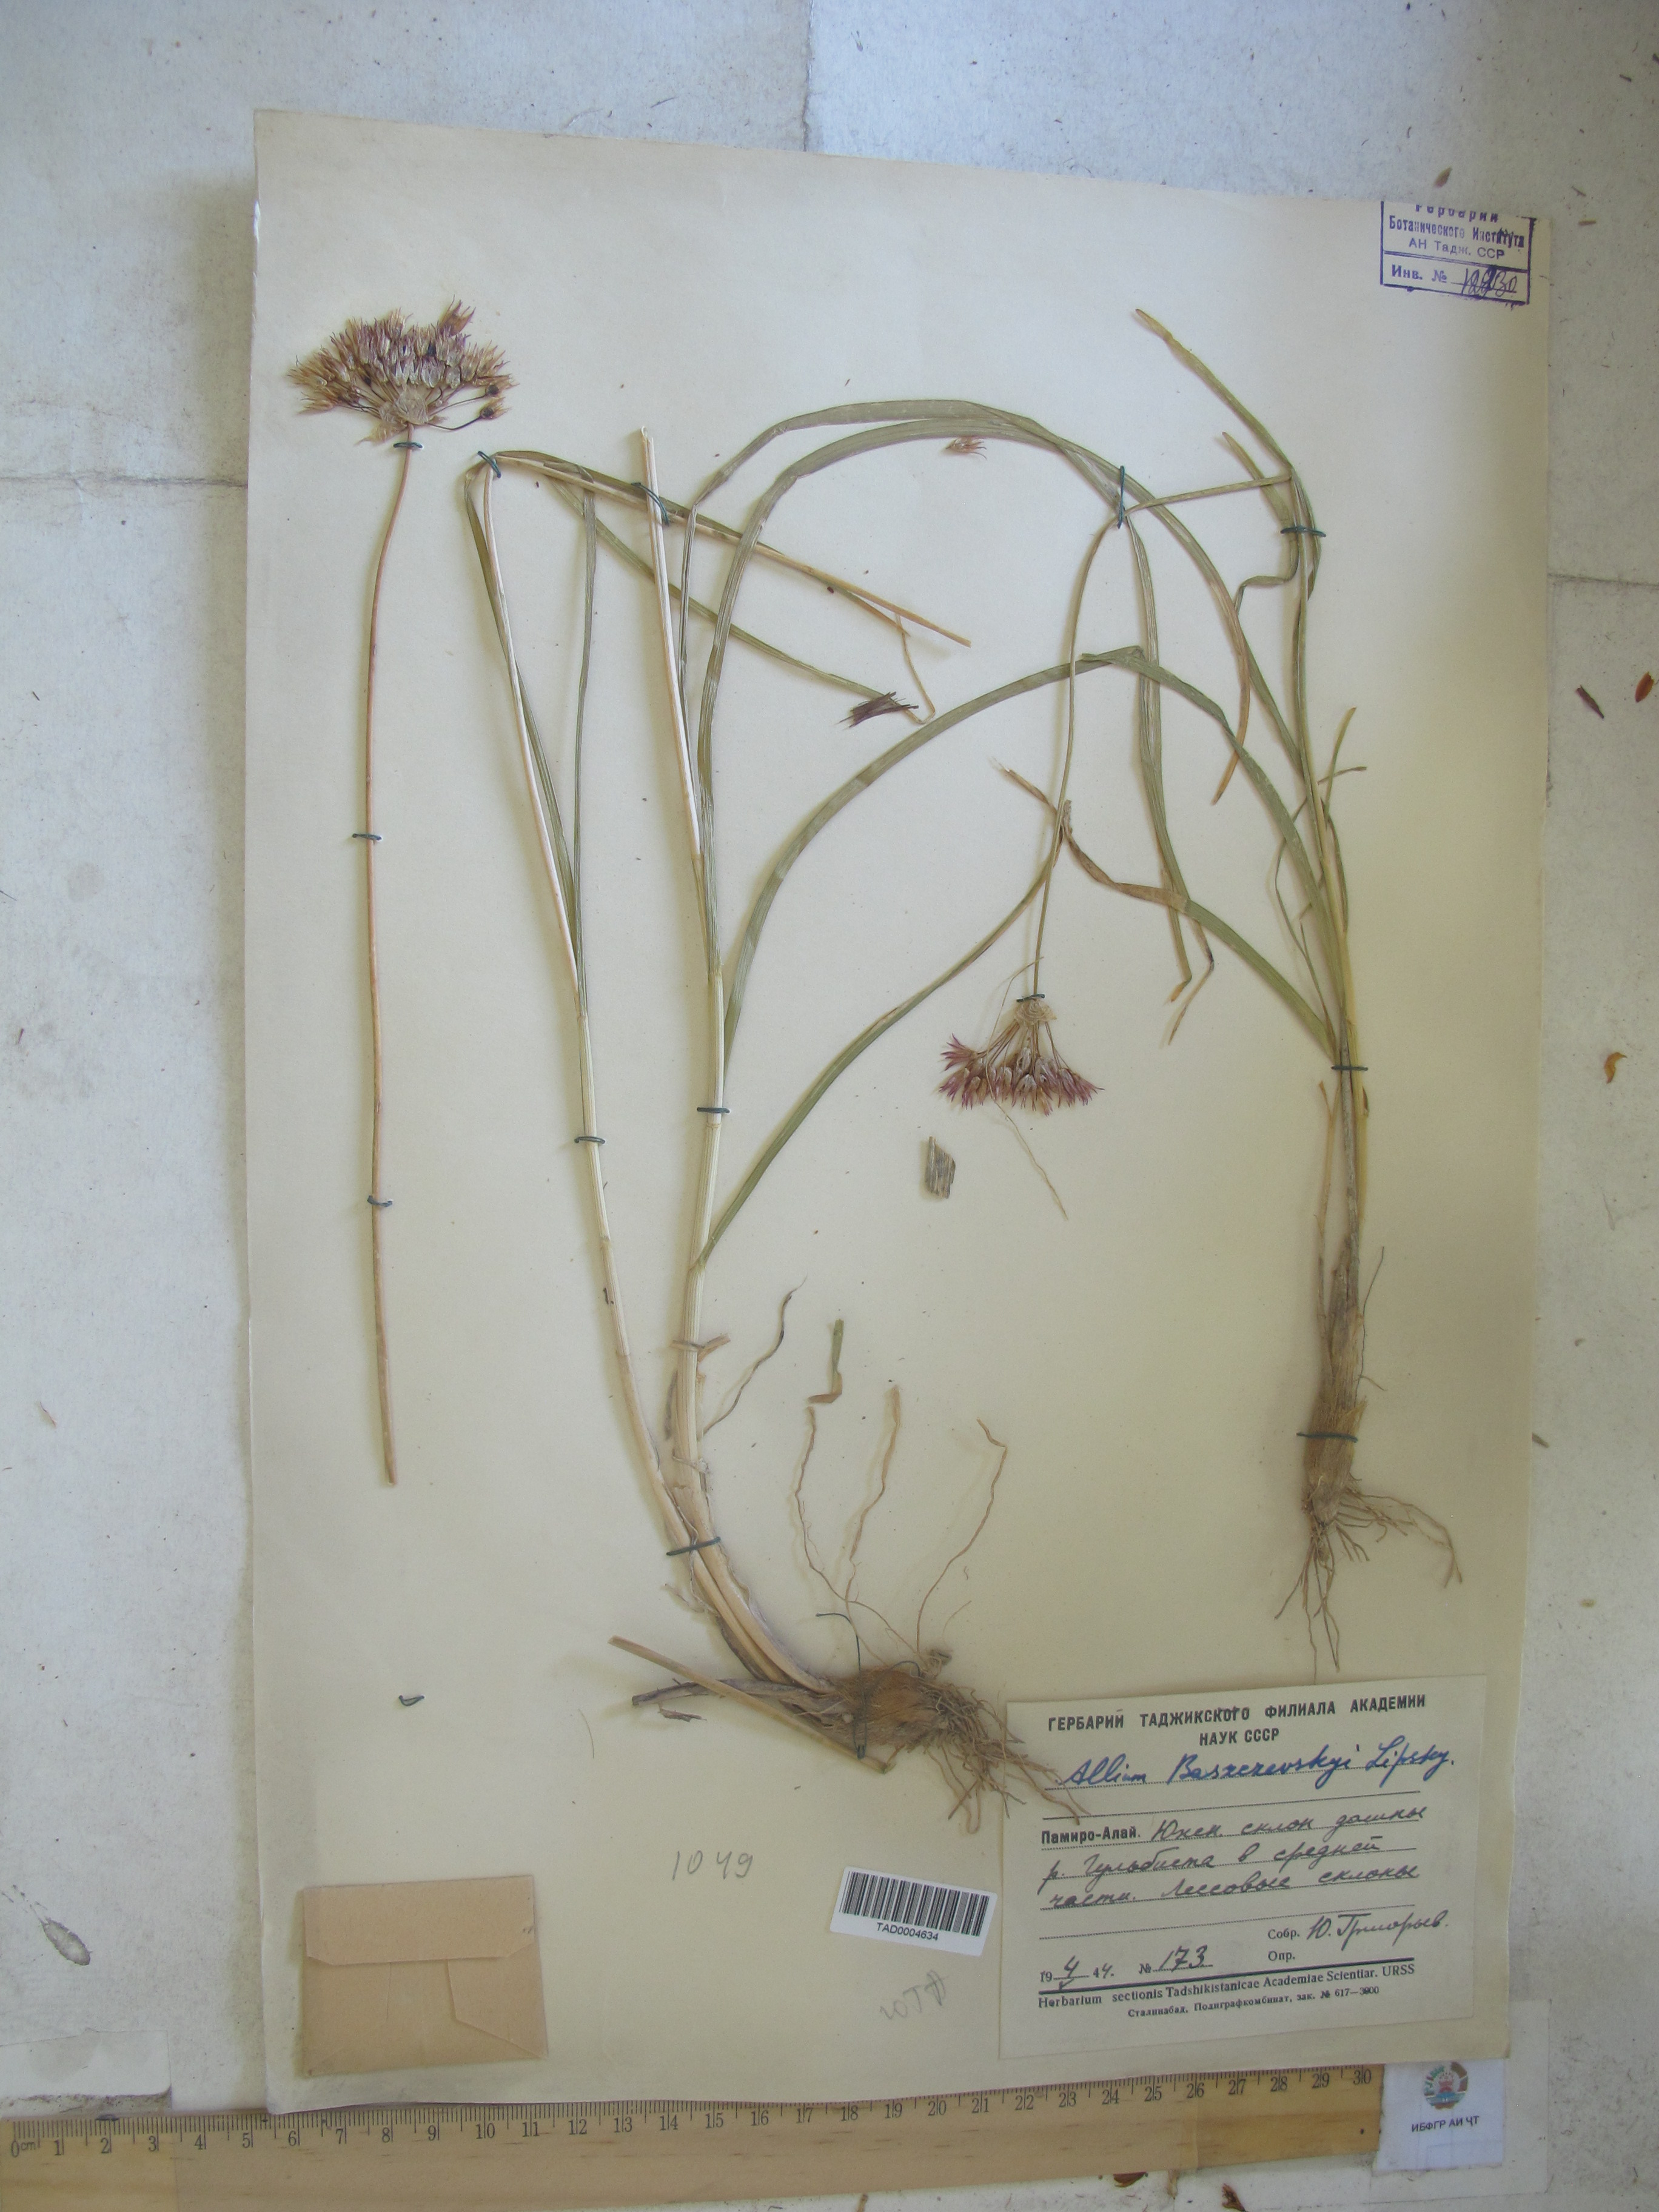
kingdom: Plantae
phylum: Tracheophyta
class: Liliopsida
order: Asparagales
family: Amaryllidaceae
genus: Allium
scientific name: Allium barsczewskii
